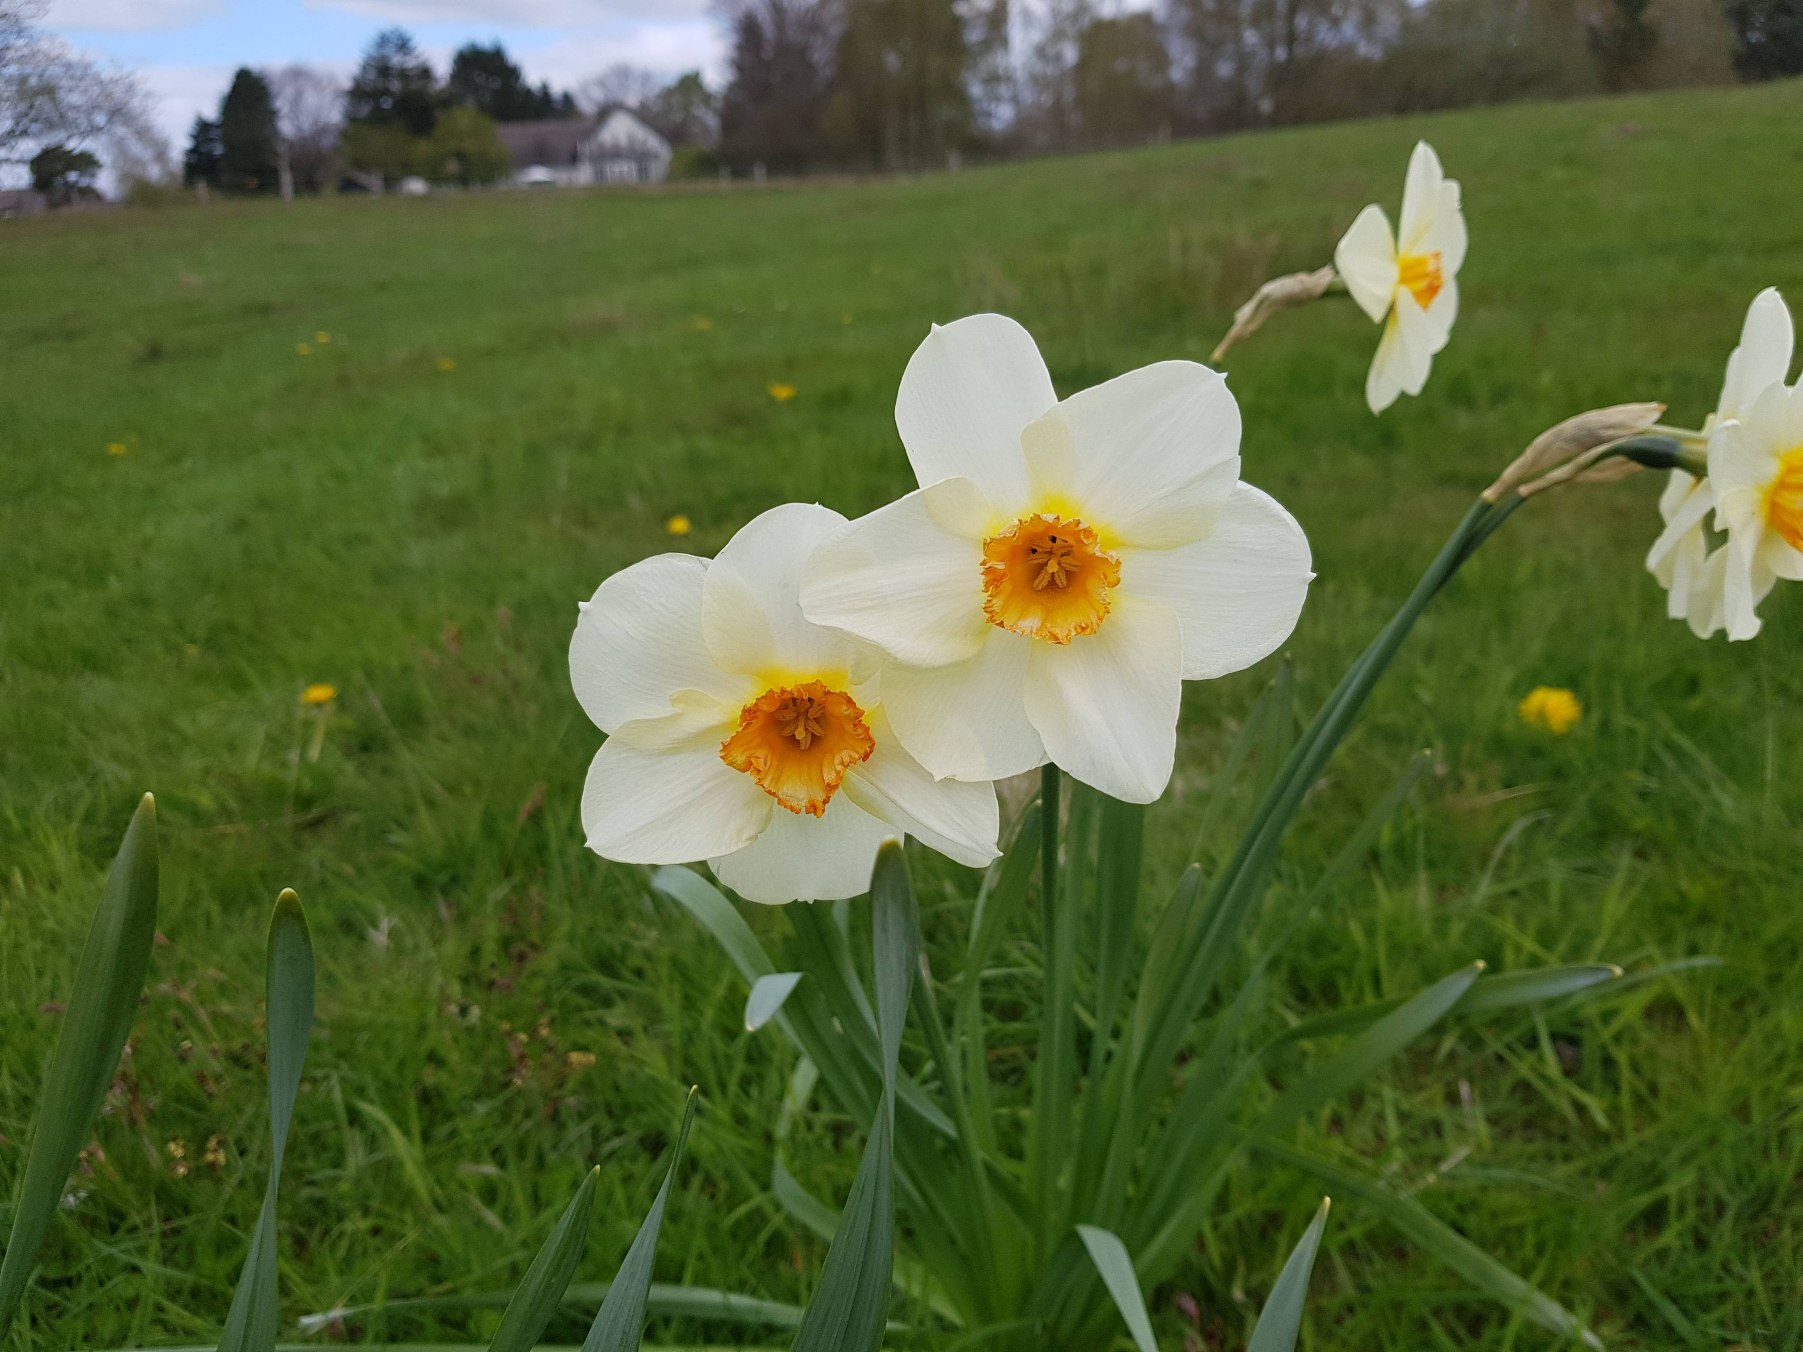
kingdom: Plantae
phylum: Tracheophyta
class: Liliopsida
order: Asparagales
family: Amaryllidaceae
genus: Narcissus
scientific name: Narcissus poeticus
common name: Pinselilje
